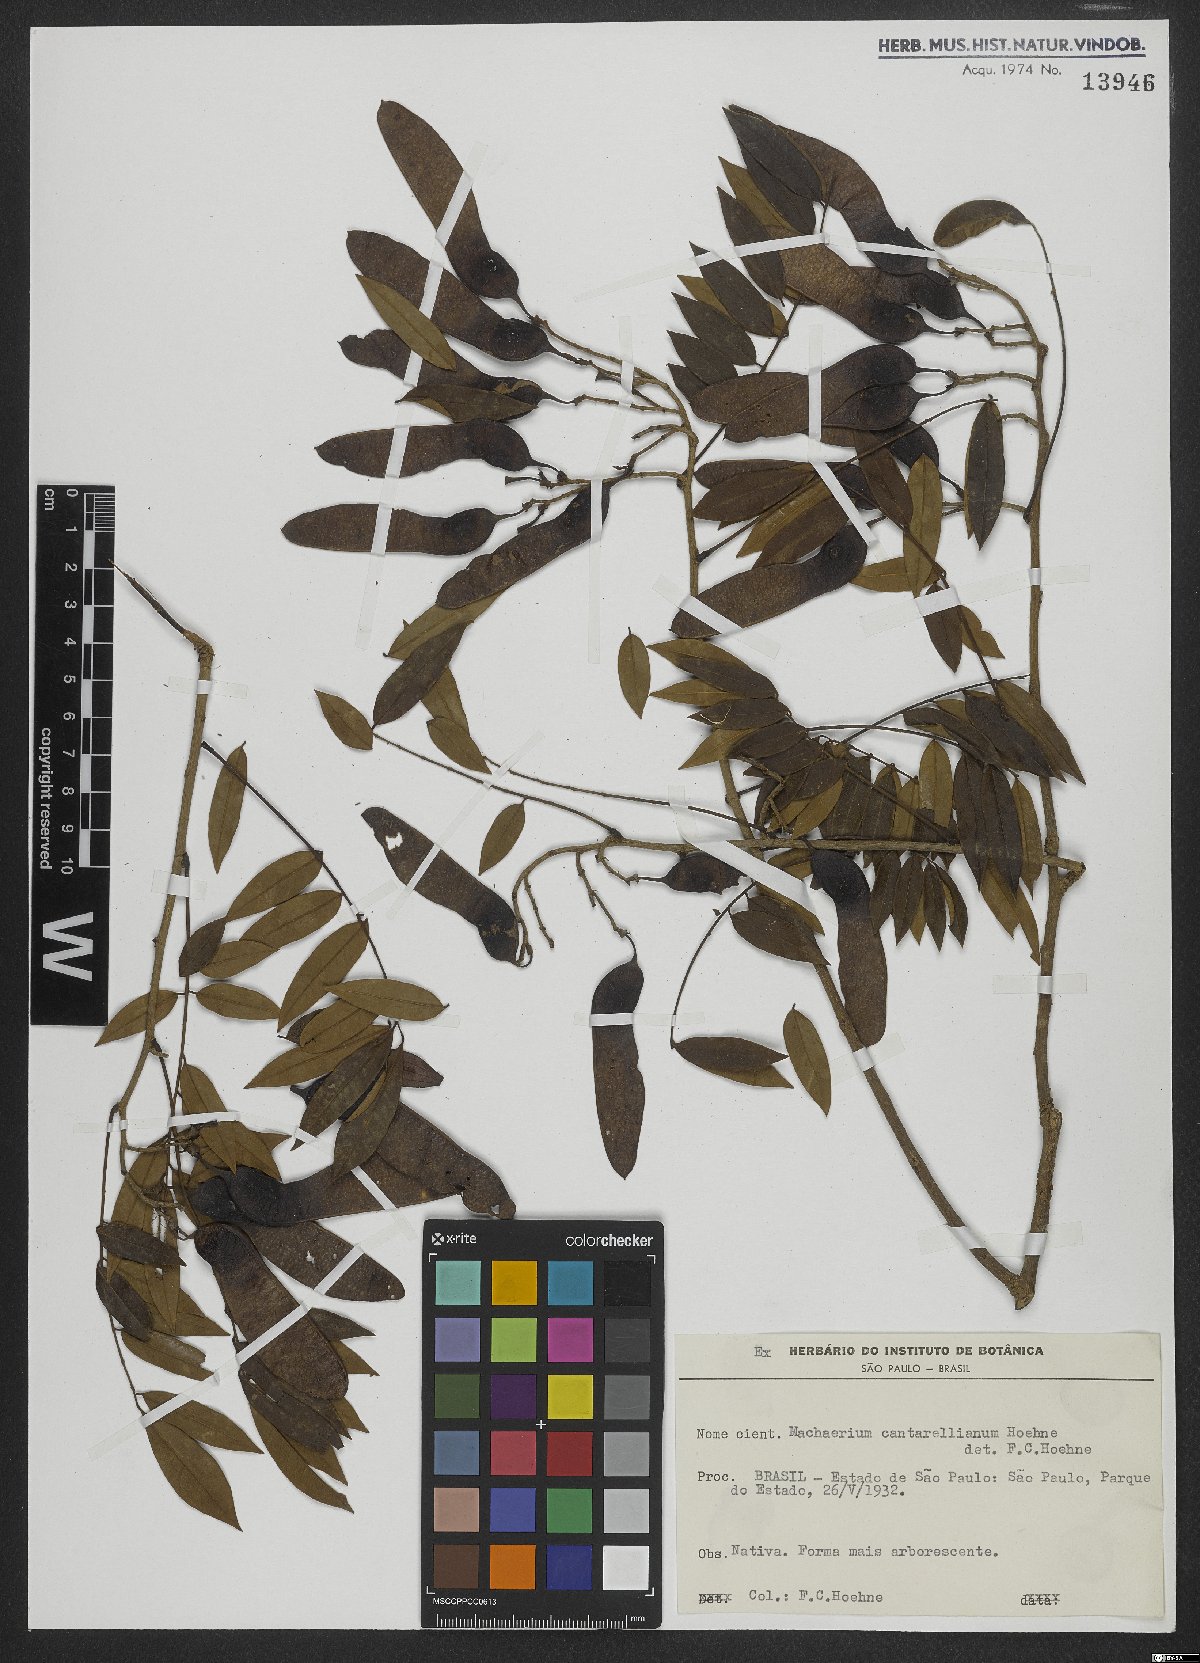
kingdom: Plantae
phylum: Tracheophyta
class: Magnoliopsida
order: Fabales
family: Fabaceae
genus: Machaerium
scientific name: Machaerium cantarellianum
